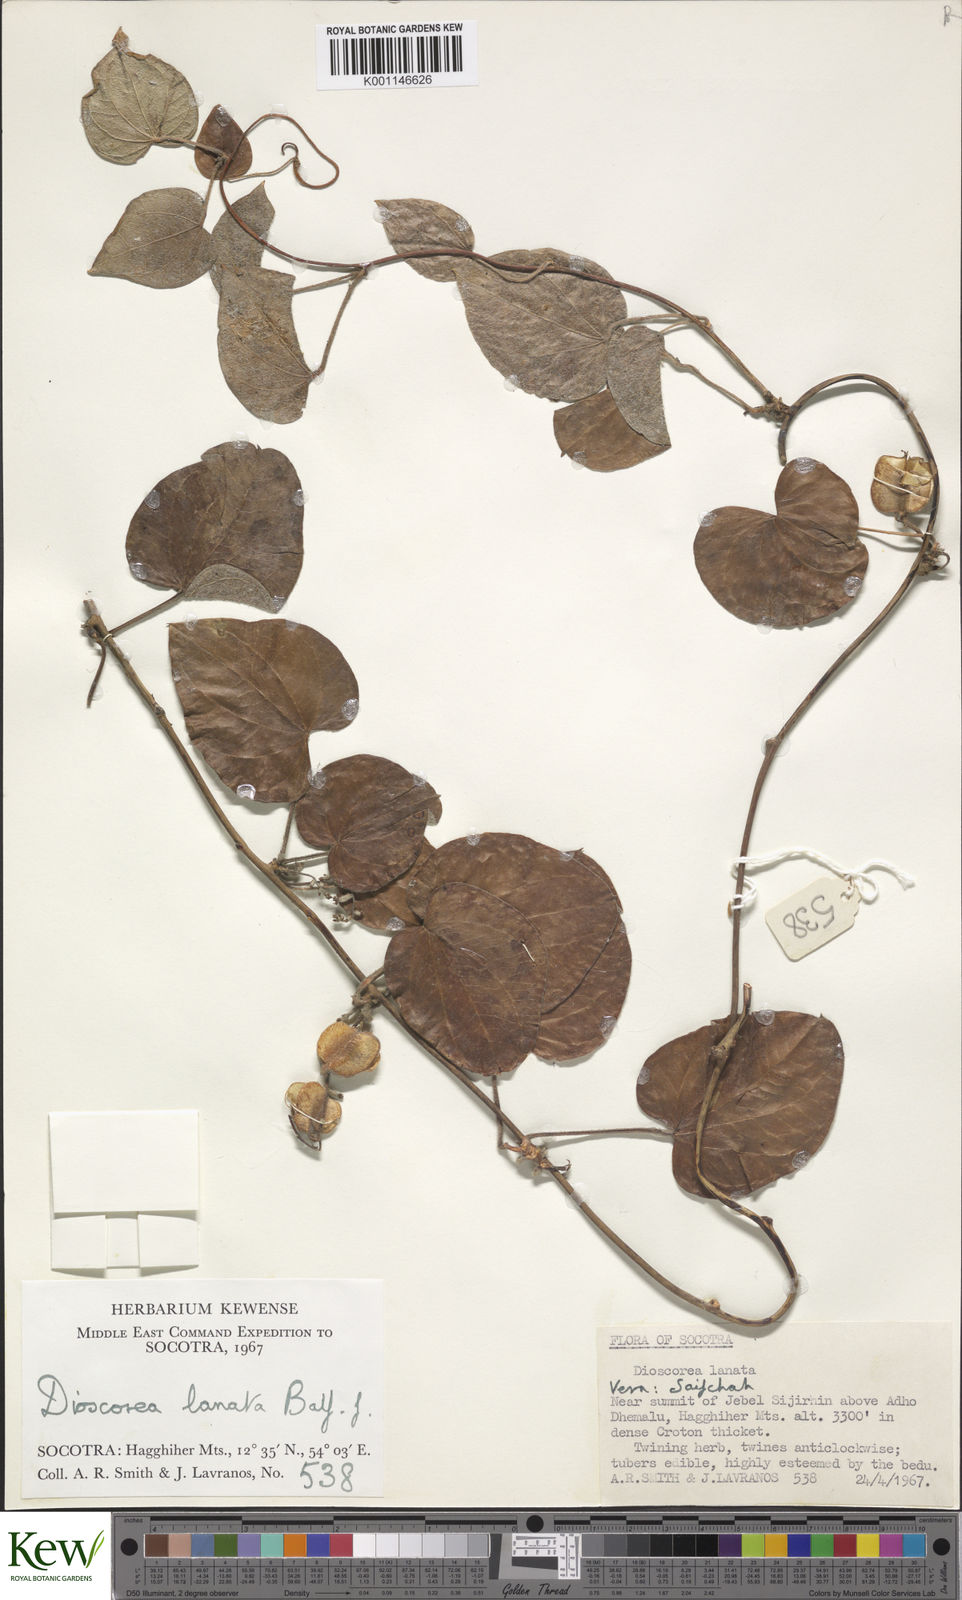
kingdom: Plantae
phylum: Tracheophyta
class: Liliopsida
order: Dioscoreales
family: Dioscoreaceae
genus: Dioscorea
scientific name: Dioscorea
